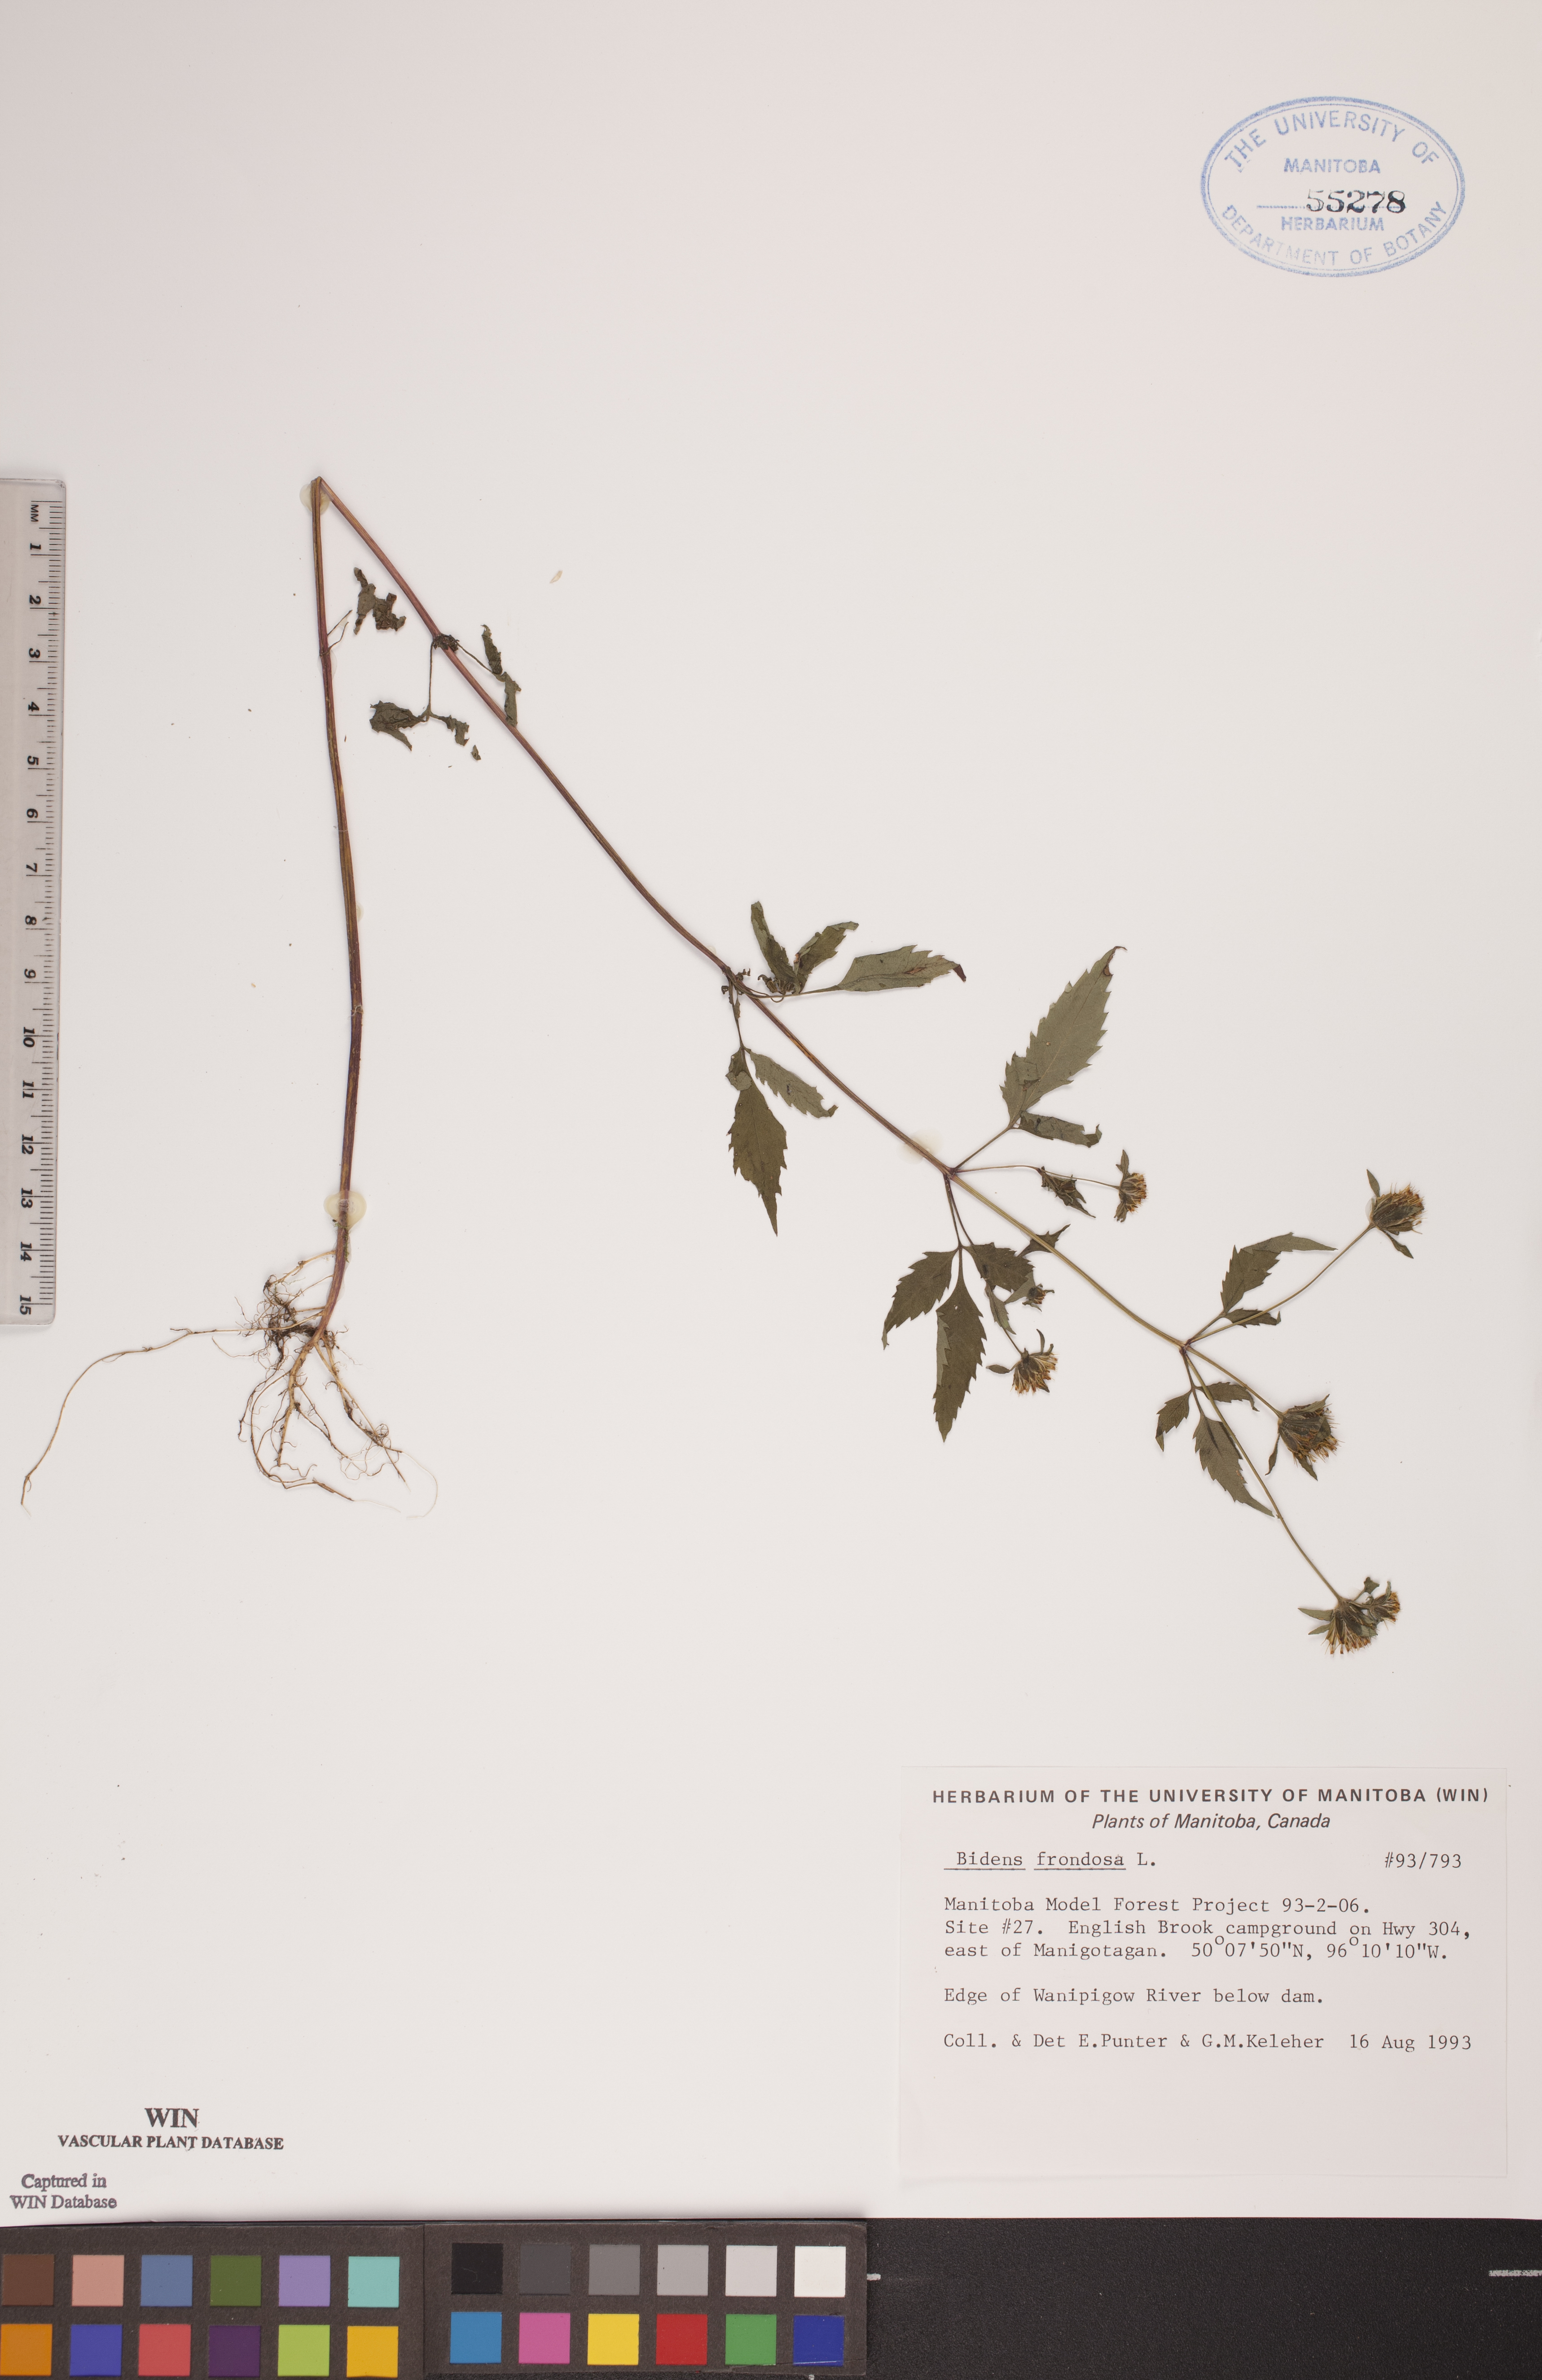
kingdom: Plantae
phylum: Tracheophyta
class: Magnoliopsida
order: Asterales
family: Asteraceae
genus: Bidens
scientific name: Bidens frondosa
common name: Beggarticks
